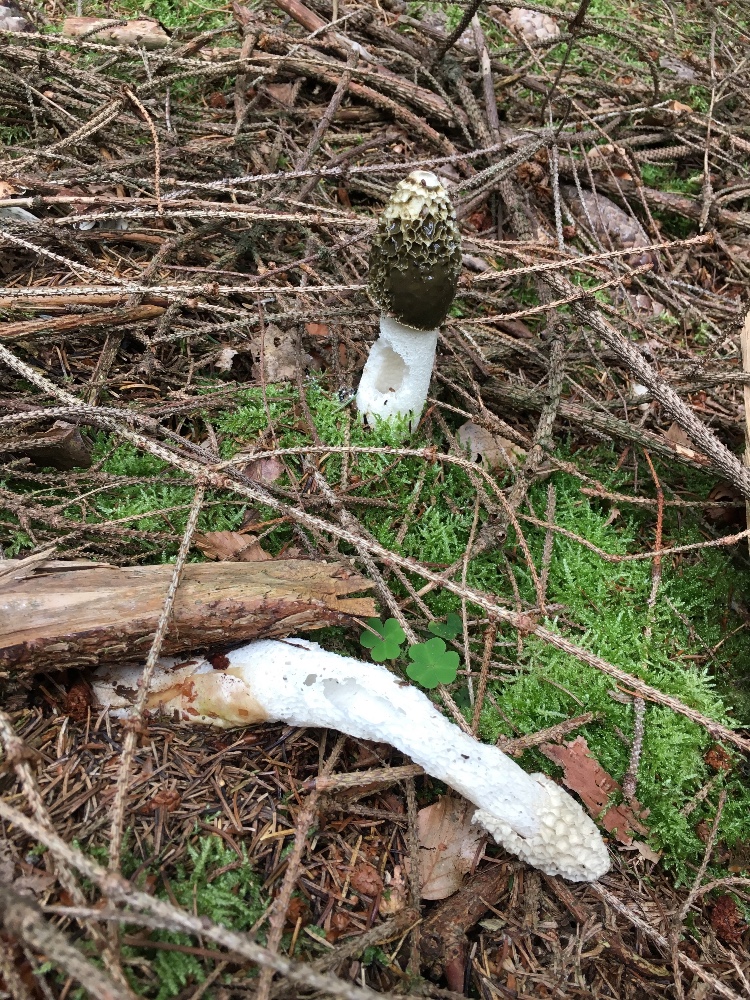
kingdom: Fungi
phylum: Basidiomycota
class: Agaricomycetes
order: Phallales
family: Phallaceae
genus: Phallus
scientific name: Phallus impudicus
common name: almindelig stinksvamp
